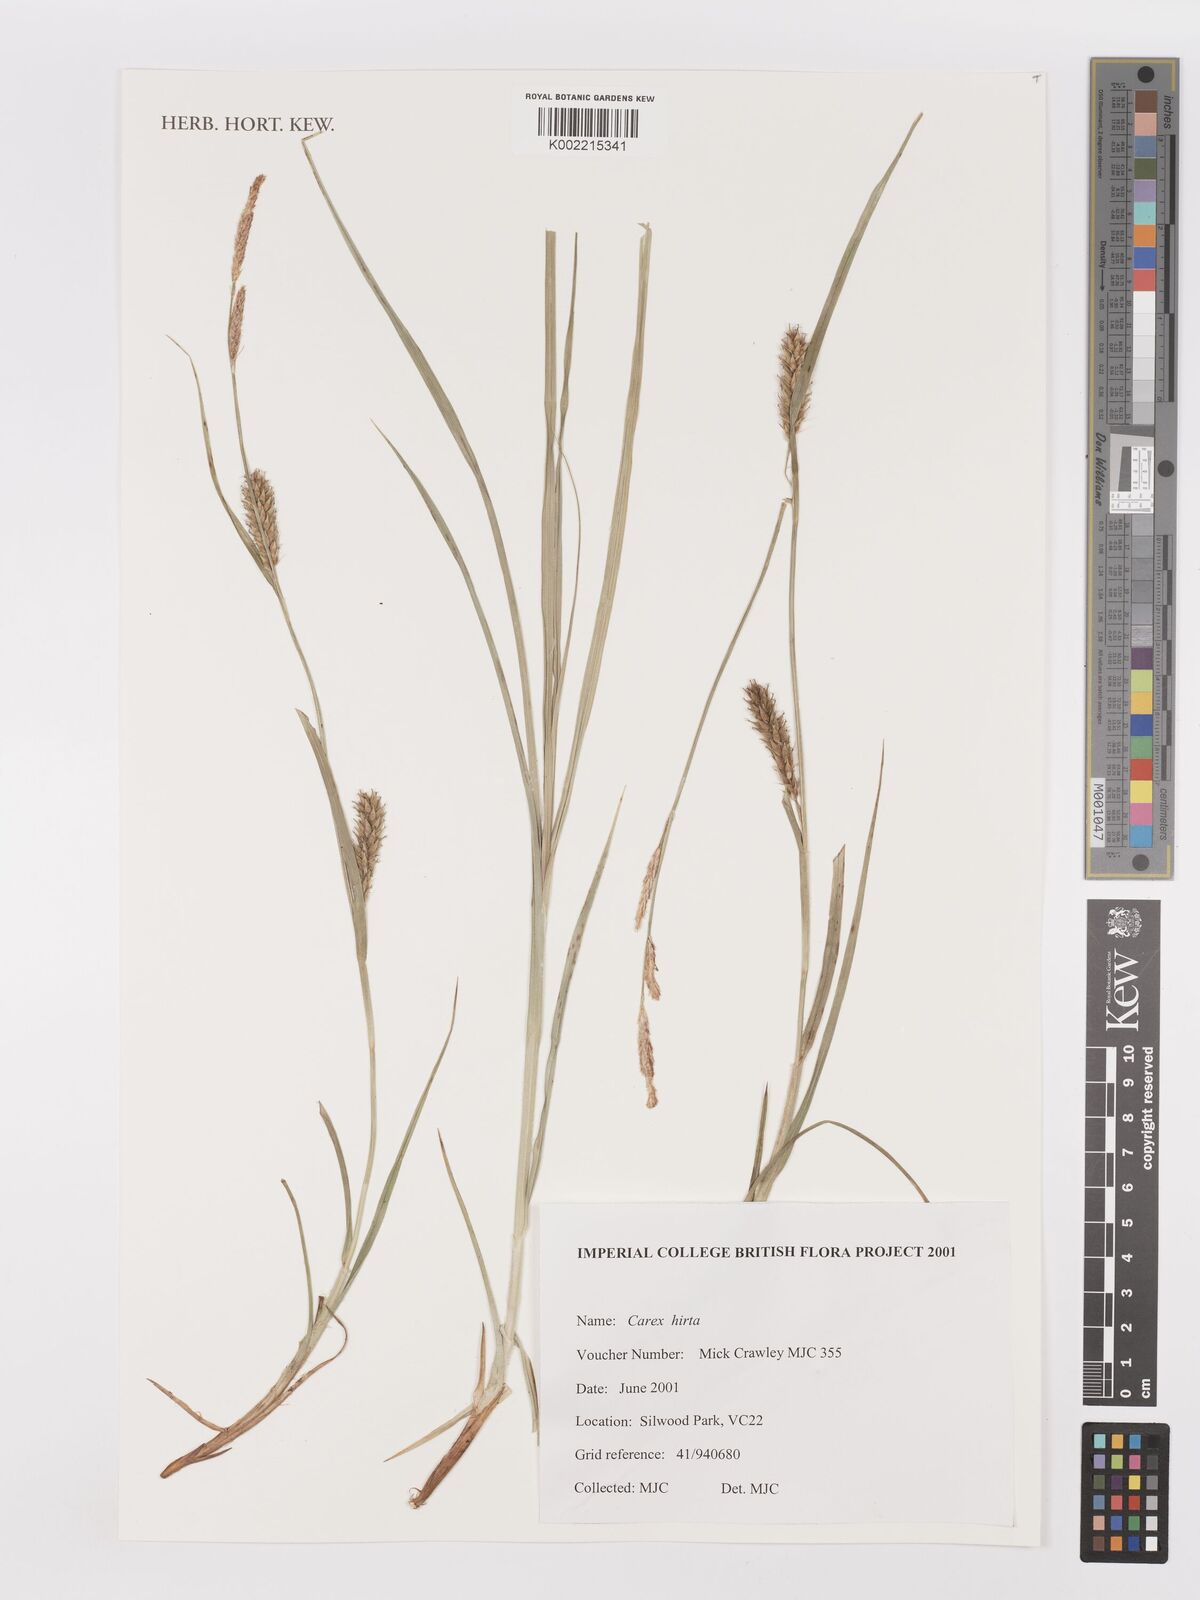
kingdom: Plantae
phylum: Tracheophyta
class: Liliopsida
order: Poales
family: Cyperaceae
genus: Carex
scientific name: Carex hirta
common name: Hairy sedge
